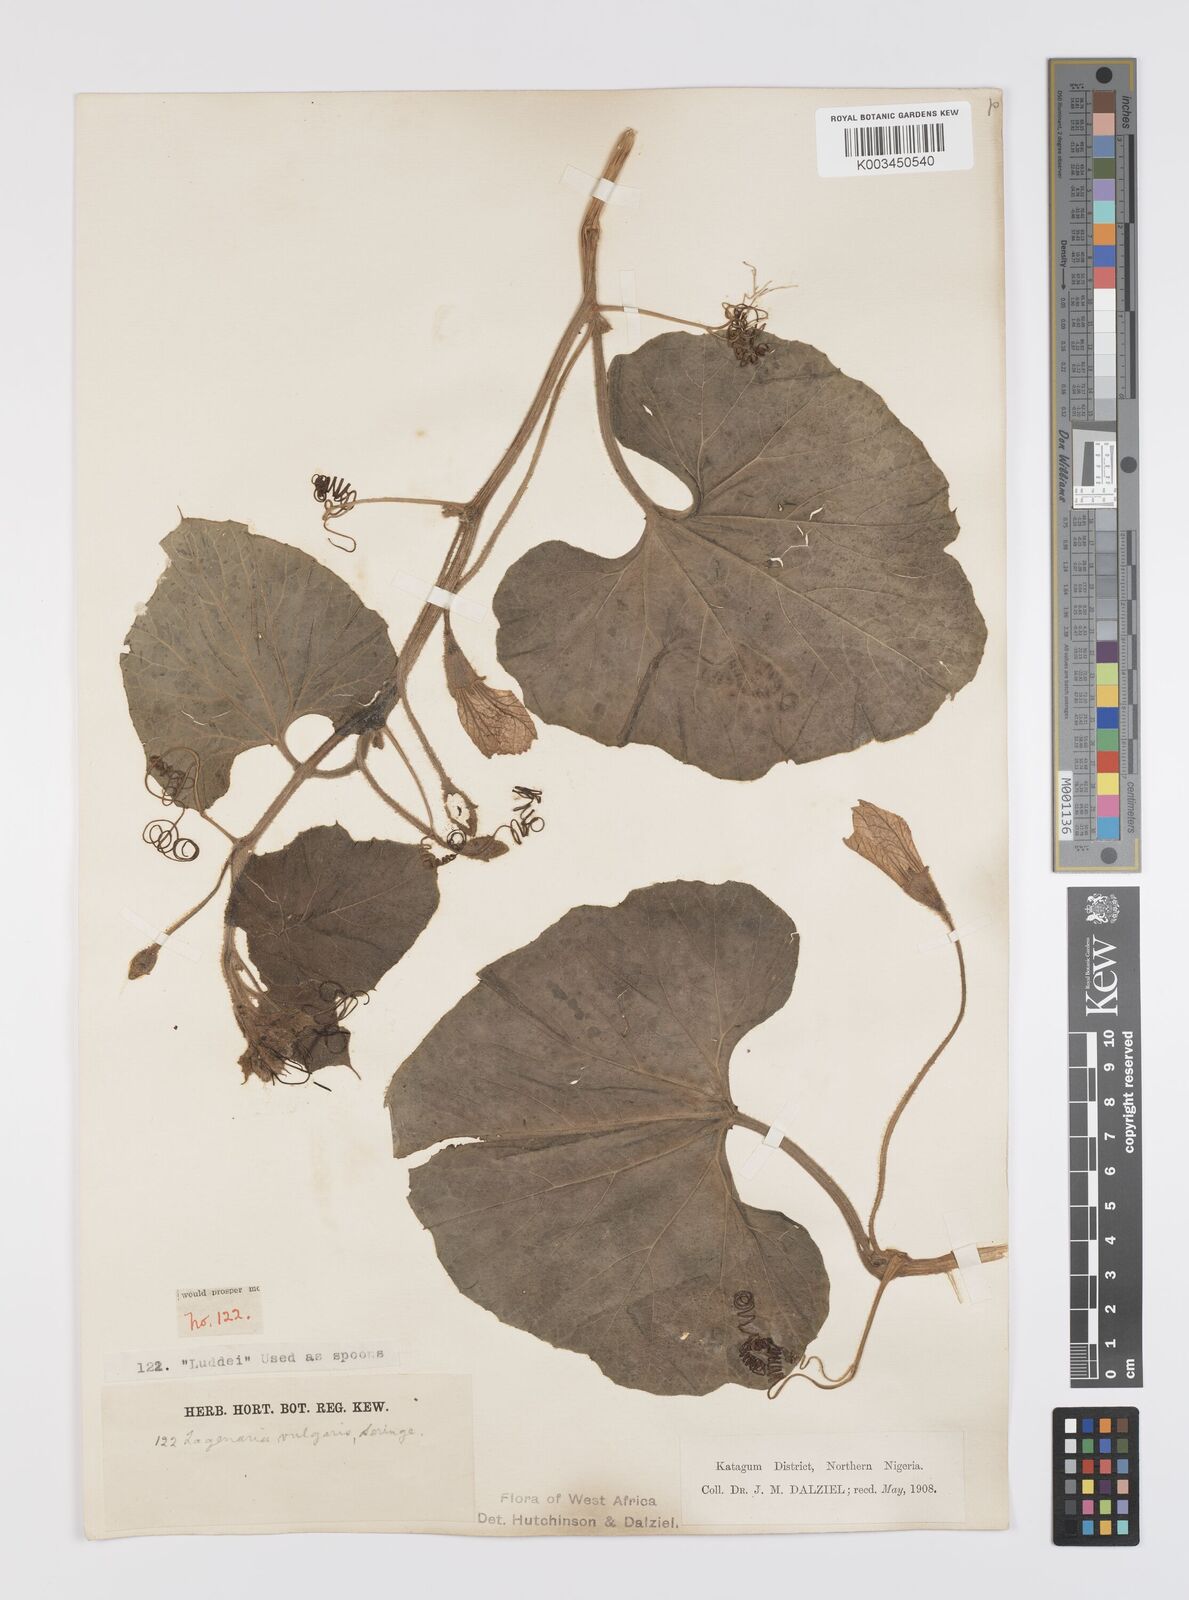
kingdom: Plantae
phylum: Tracheophyta
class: Magnoliopsida
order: Cucurbitales
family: Cucurbitaceae
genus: Lagenaria
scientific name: Lagenaria siceraria
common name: Bottle gourd
